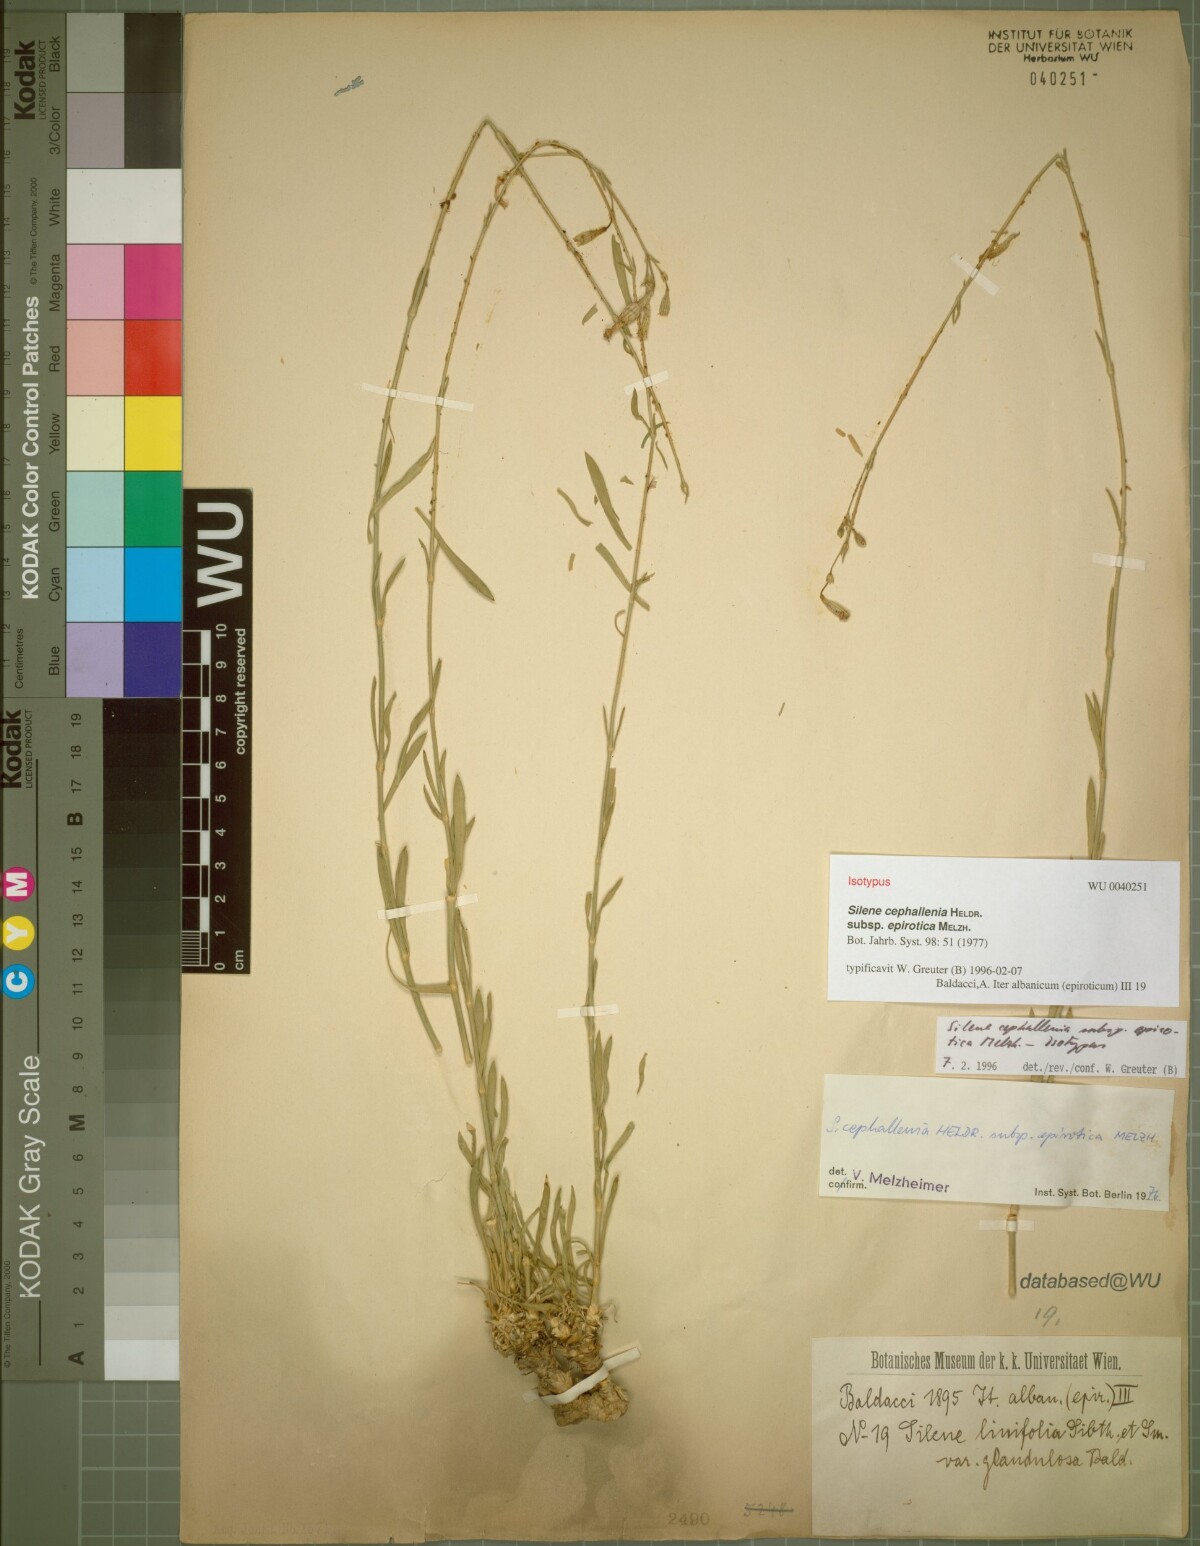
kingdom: Plantae
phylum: Tracheophyta
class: Magnoliopsida
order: Caryophyllales
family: Caryophyllaceae
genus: Silene
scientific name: Silene cephallenia
